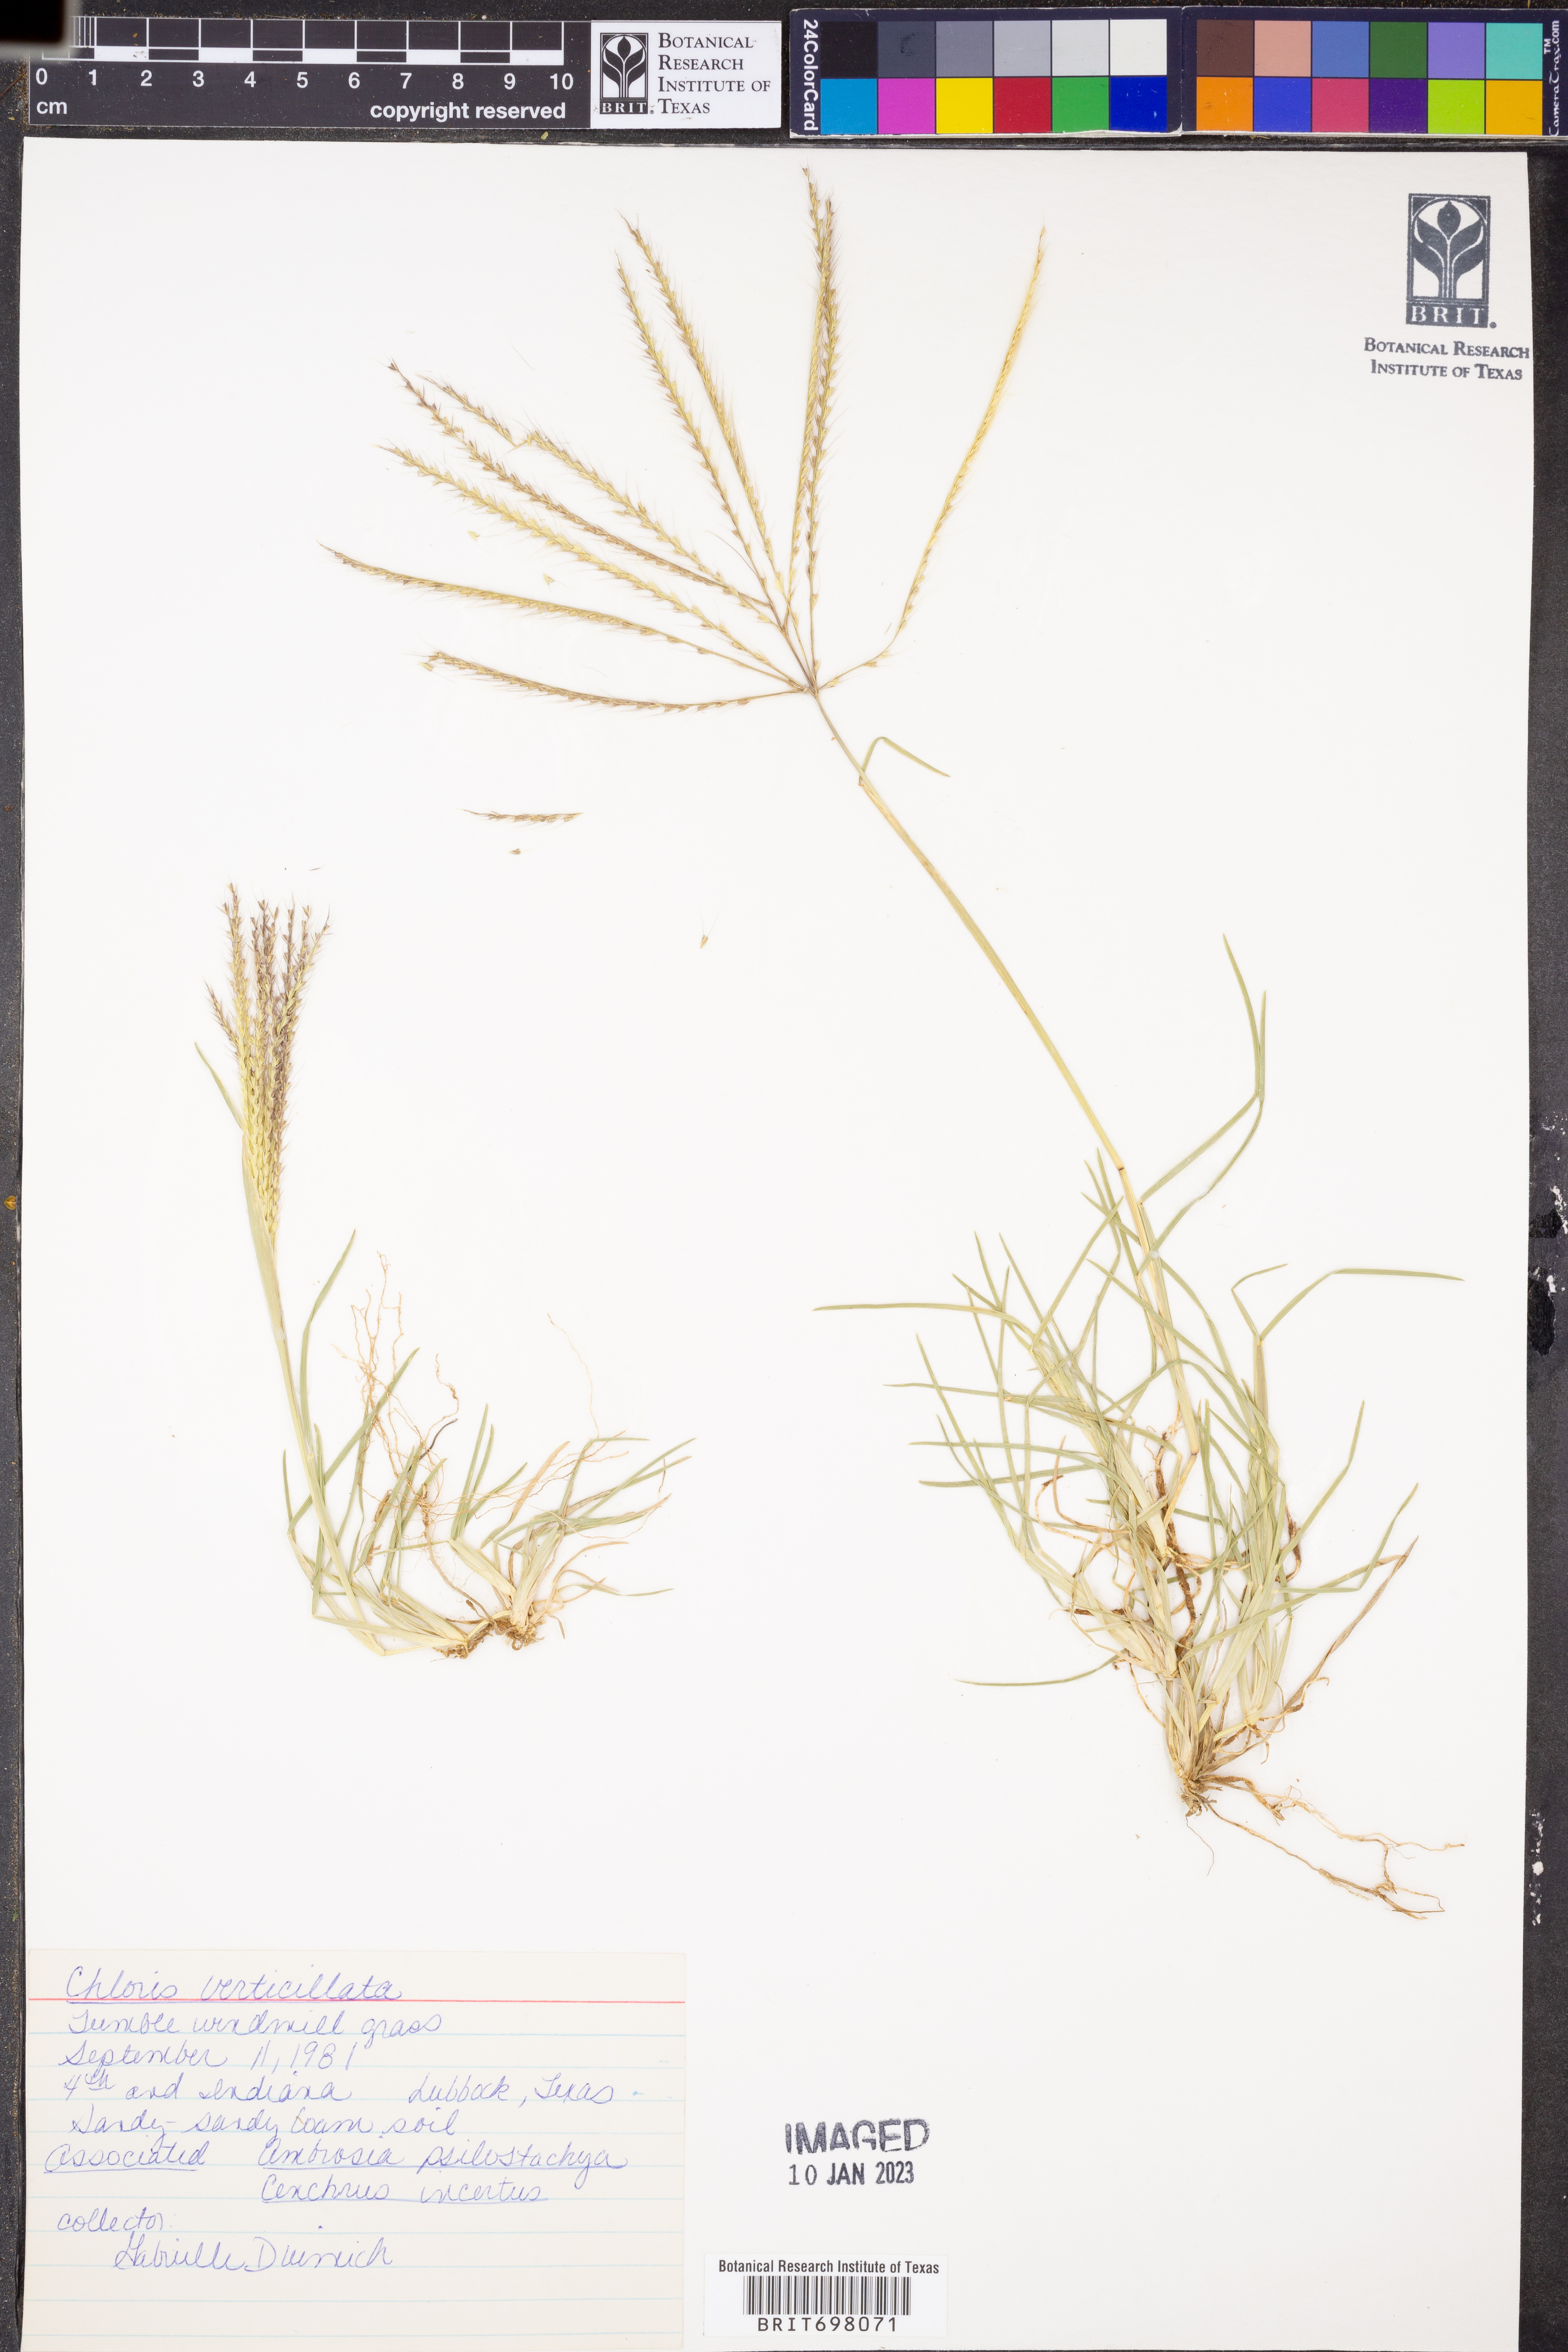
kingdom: Plantae
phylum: Tracheophyta
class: Liliopsida
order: Poales
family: Poaceae
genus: Chloris
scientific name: Chloris verticillata
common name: Tumble windmill grass
